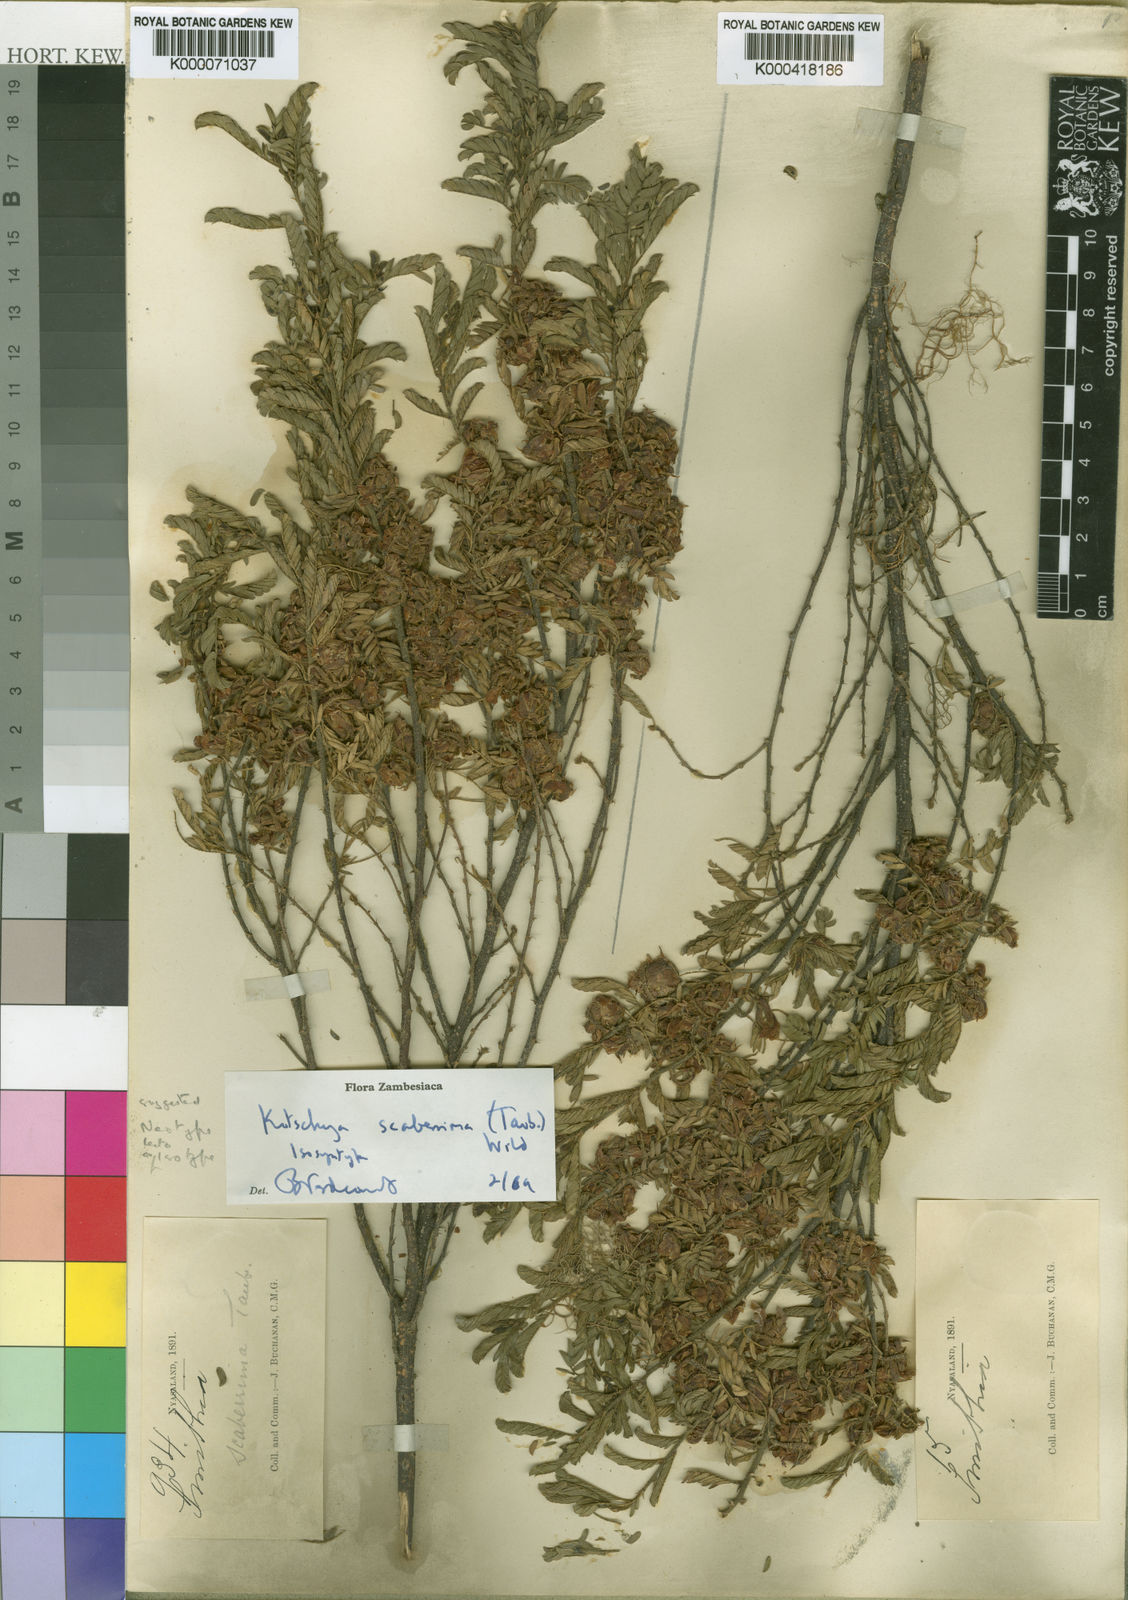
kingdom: Plantae
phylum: Tracheophyta
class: Magnoliopsida
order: Fabales
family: Fabaceae
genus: Kotschya
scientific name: Kotschya scaberrima
